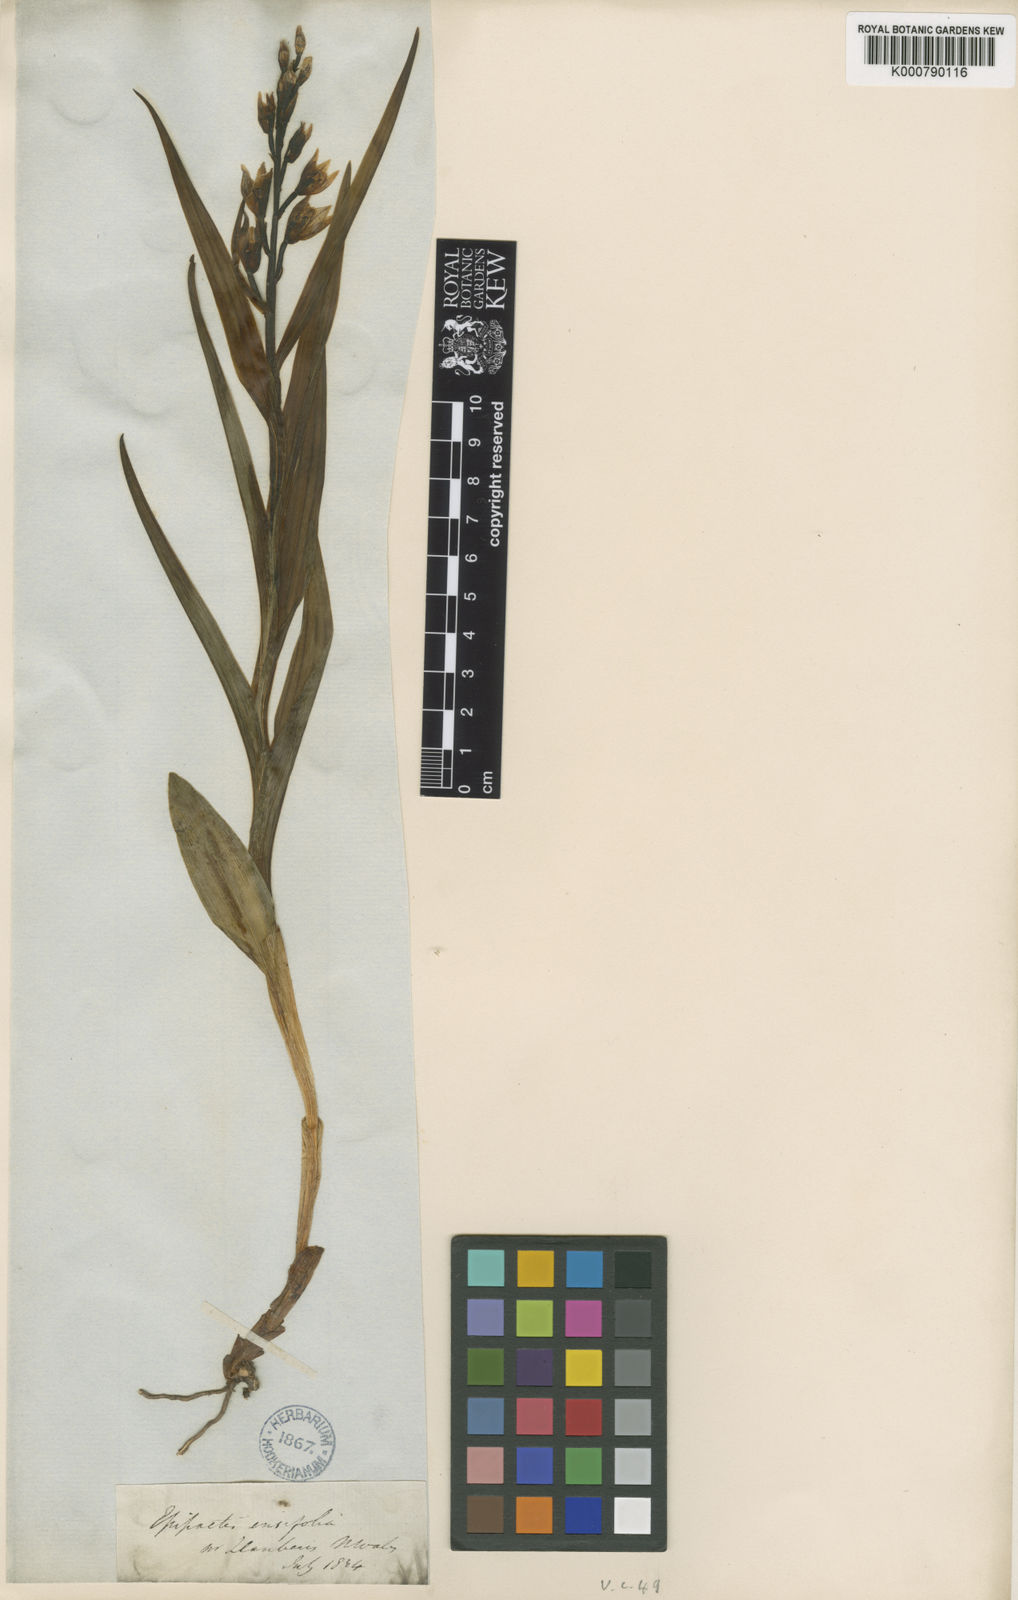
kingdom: Plantae
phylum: Tracheophyta
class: Liliopsida
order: Asparagales
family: Orchidaceae
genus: Cephalanthera
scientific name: Cephalanthera longifolia
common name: Narrow-leaved helleborine
